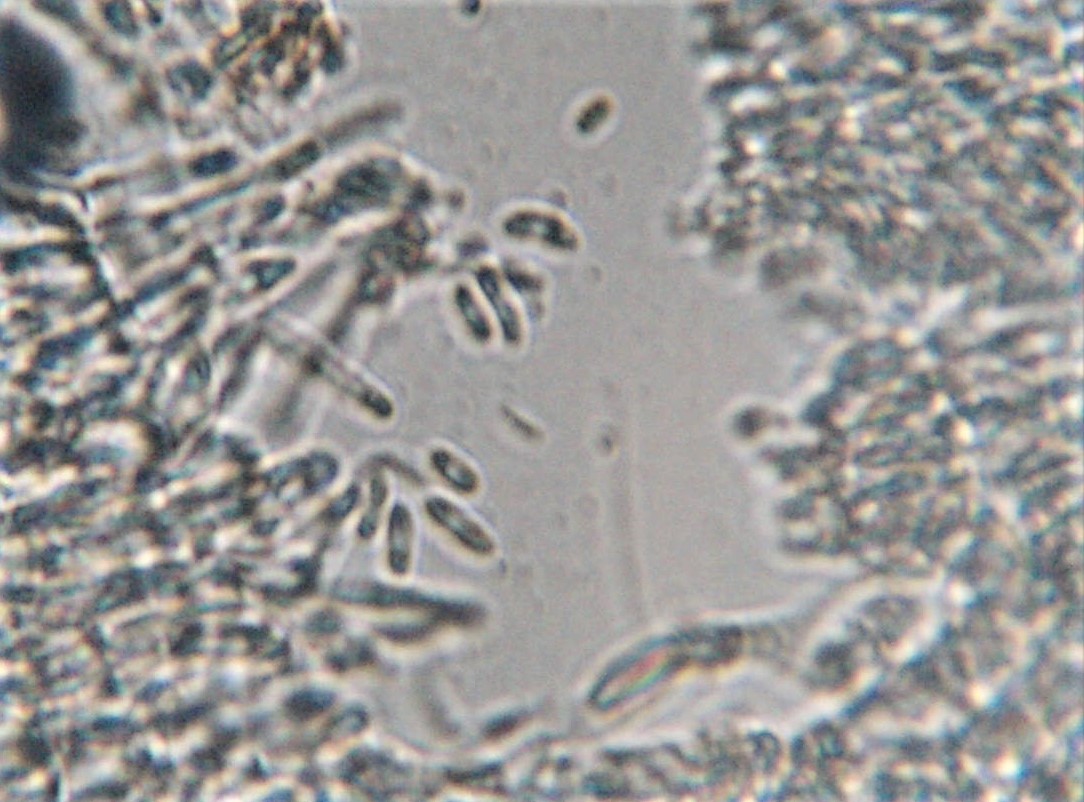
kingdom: Fungi
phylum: Ascomycota
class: Leotiomycetes
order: Helotiales
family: Hyaloscyphaceae
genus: Protounguicularia
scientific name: Protounguicularia transiens
